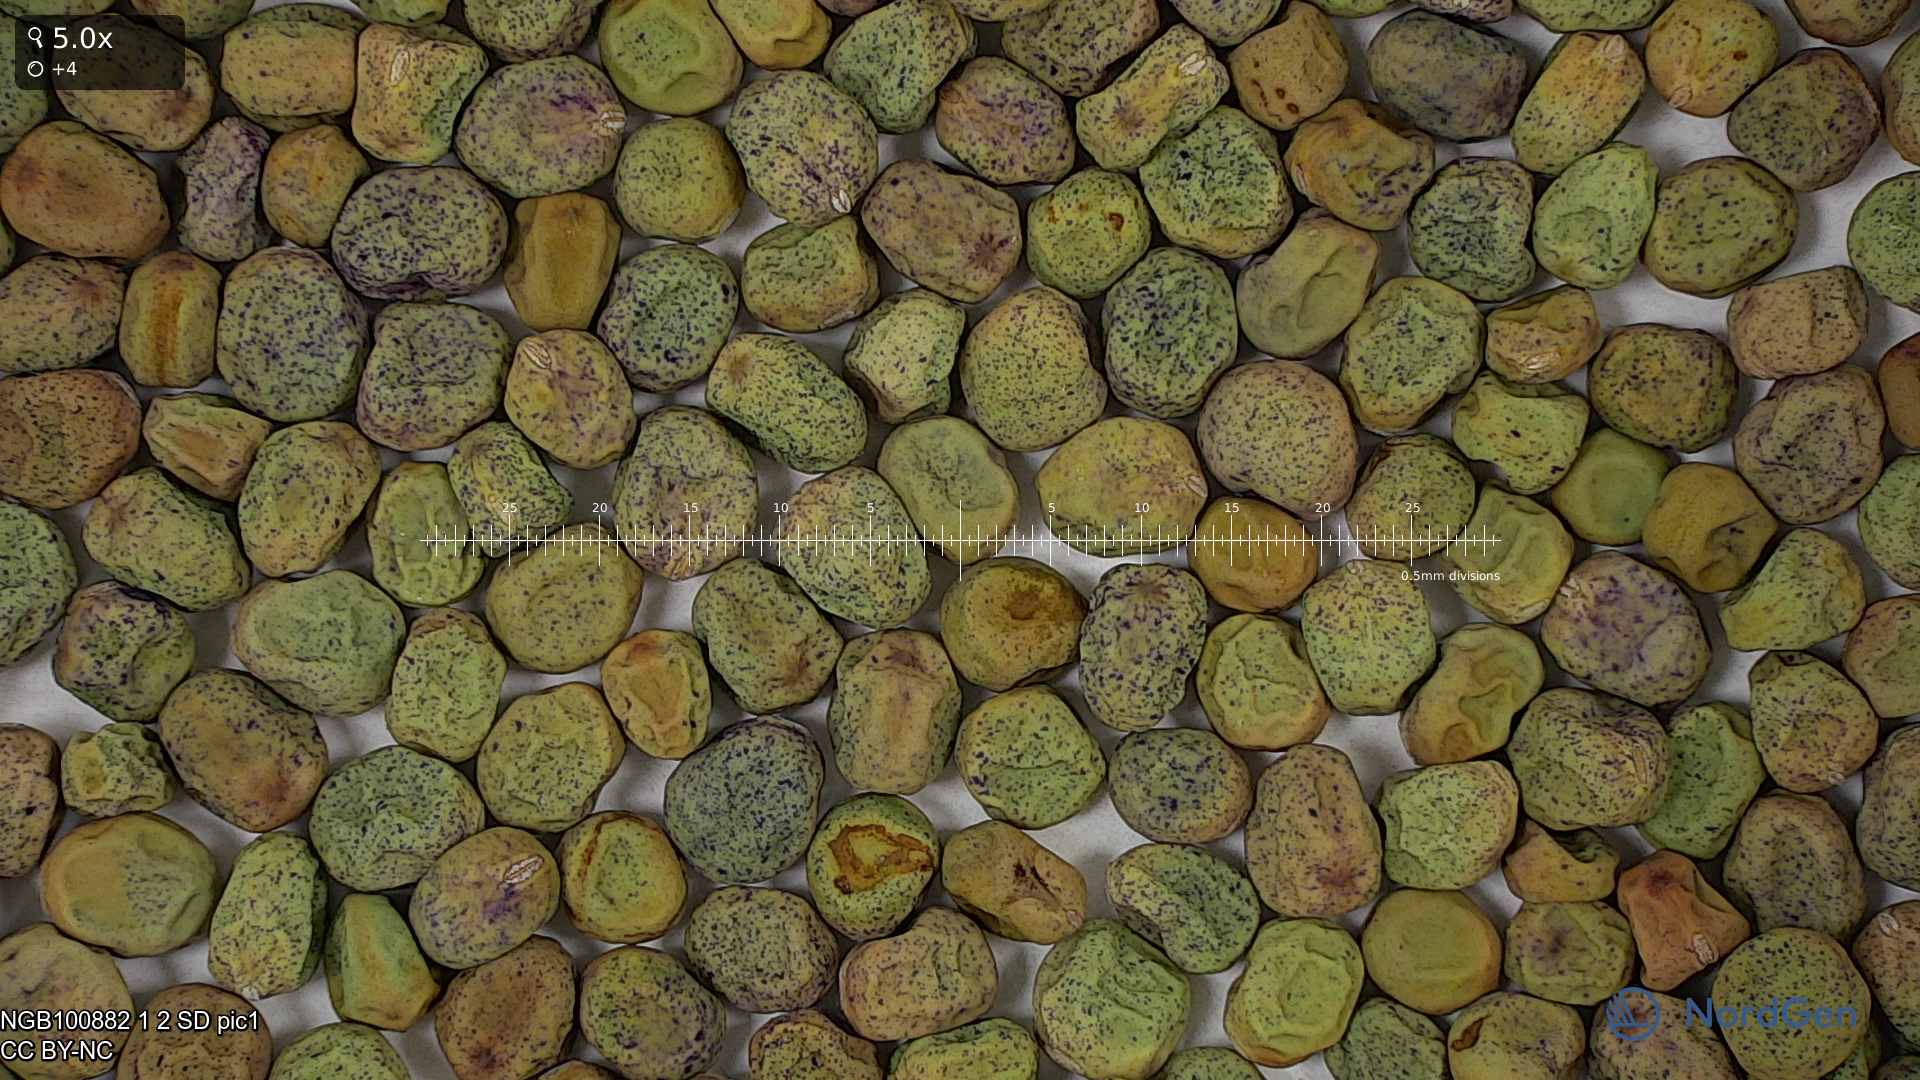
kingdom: Plantae
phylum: Tracheophyta
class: Magnoliopsida
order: Fabales
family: Fabaceae
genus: Lathyrus
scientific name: Lathyrus oleraceus
